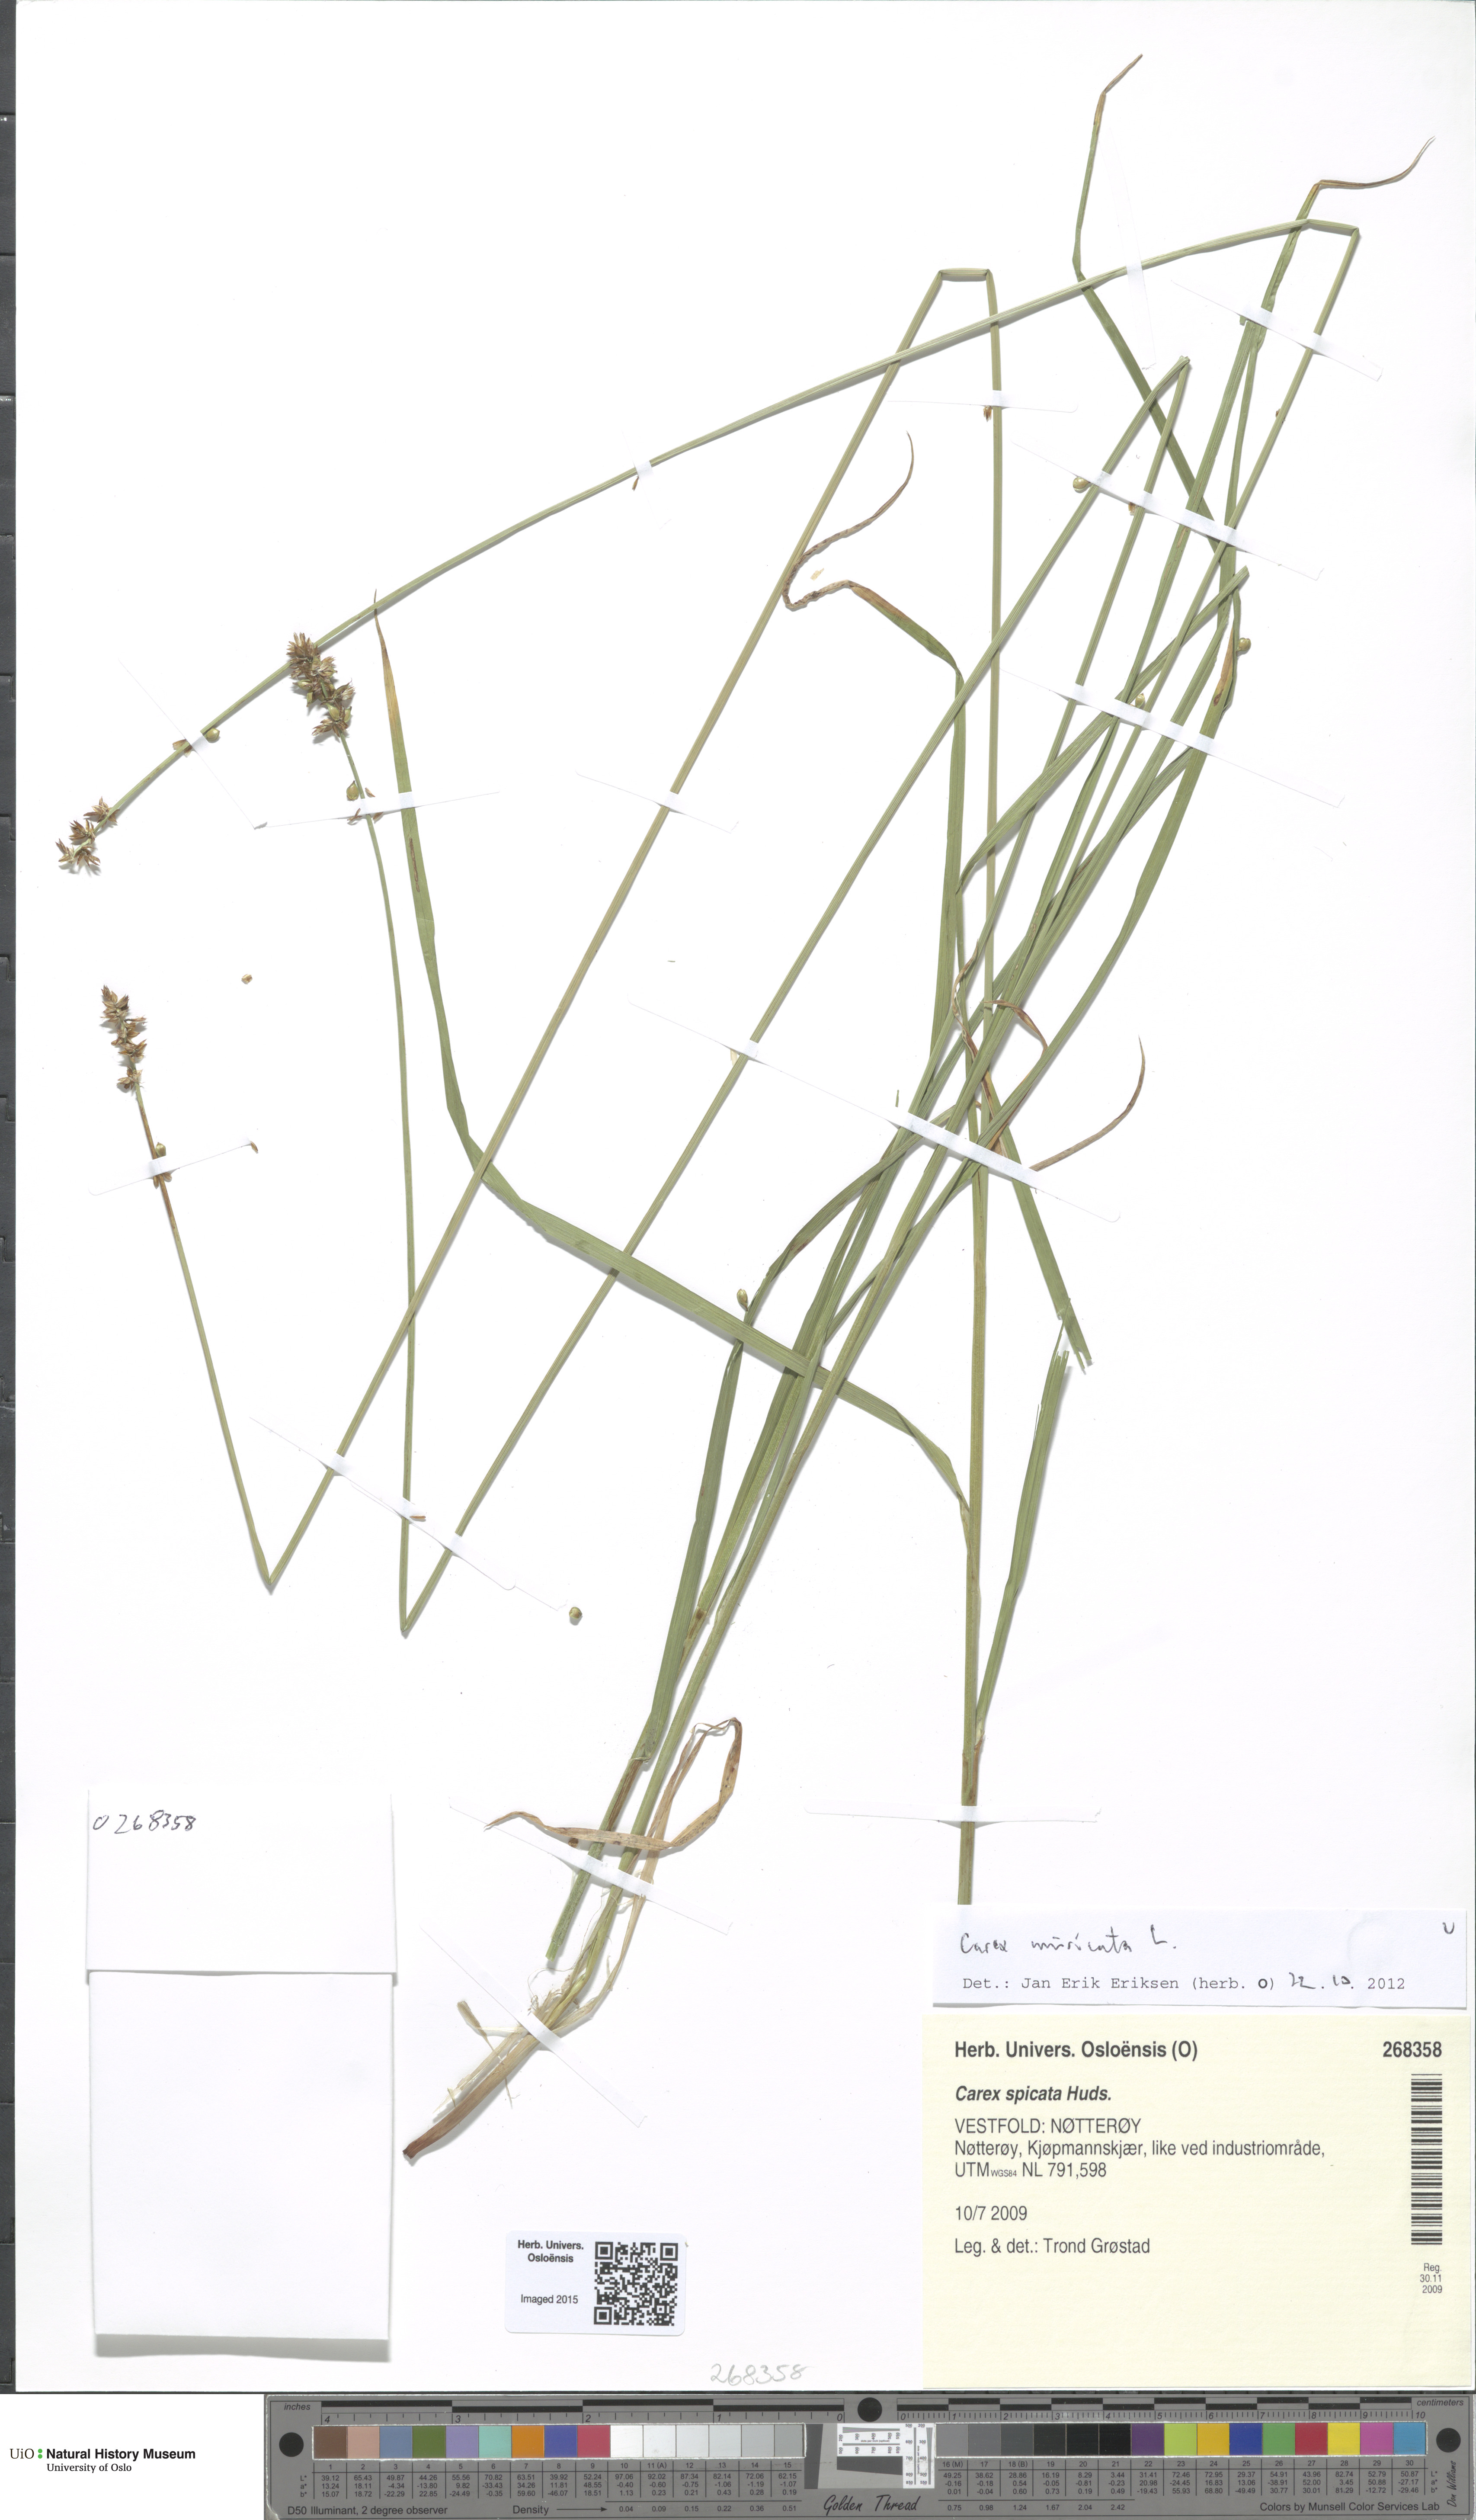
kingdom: Plantae
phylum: Tracheophyta
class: Liliopsida
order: Poales
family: Cyperaceae
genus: Carex
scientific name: Carex muricata
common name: Rough sedge
